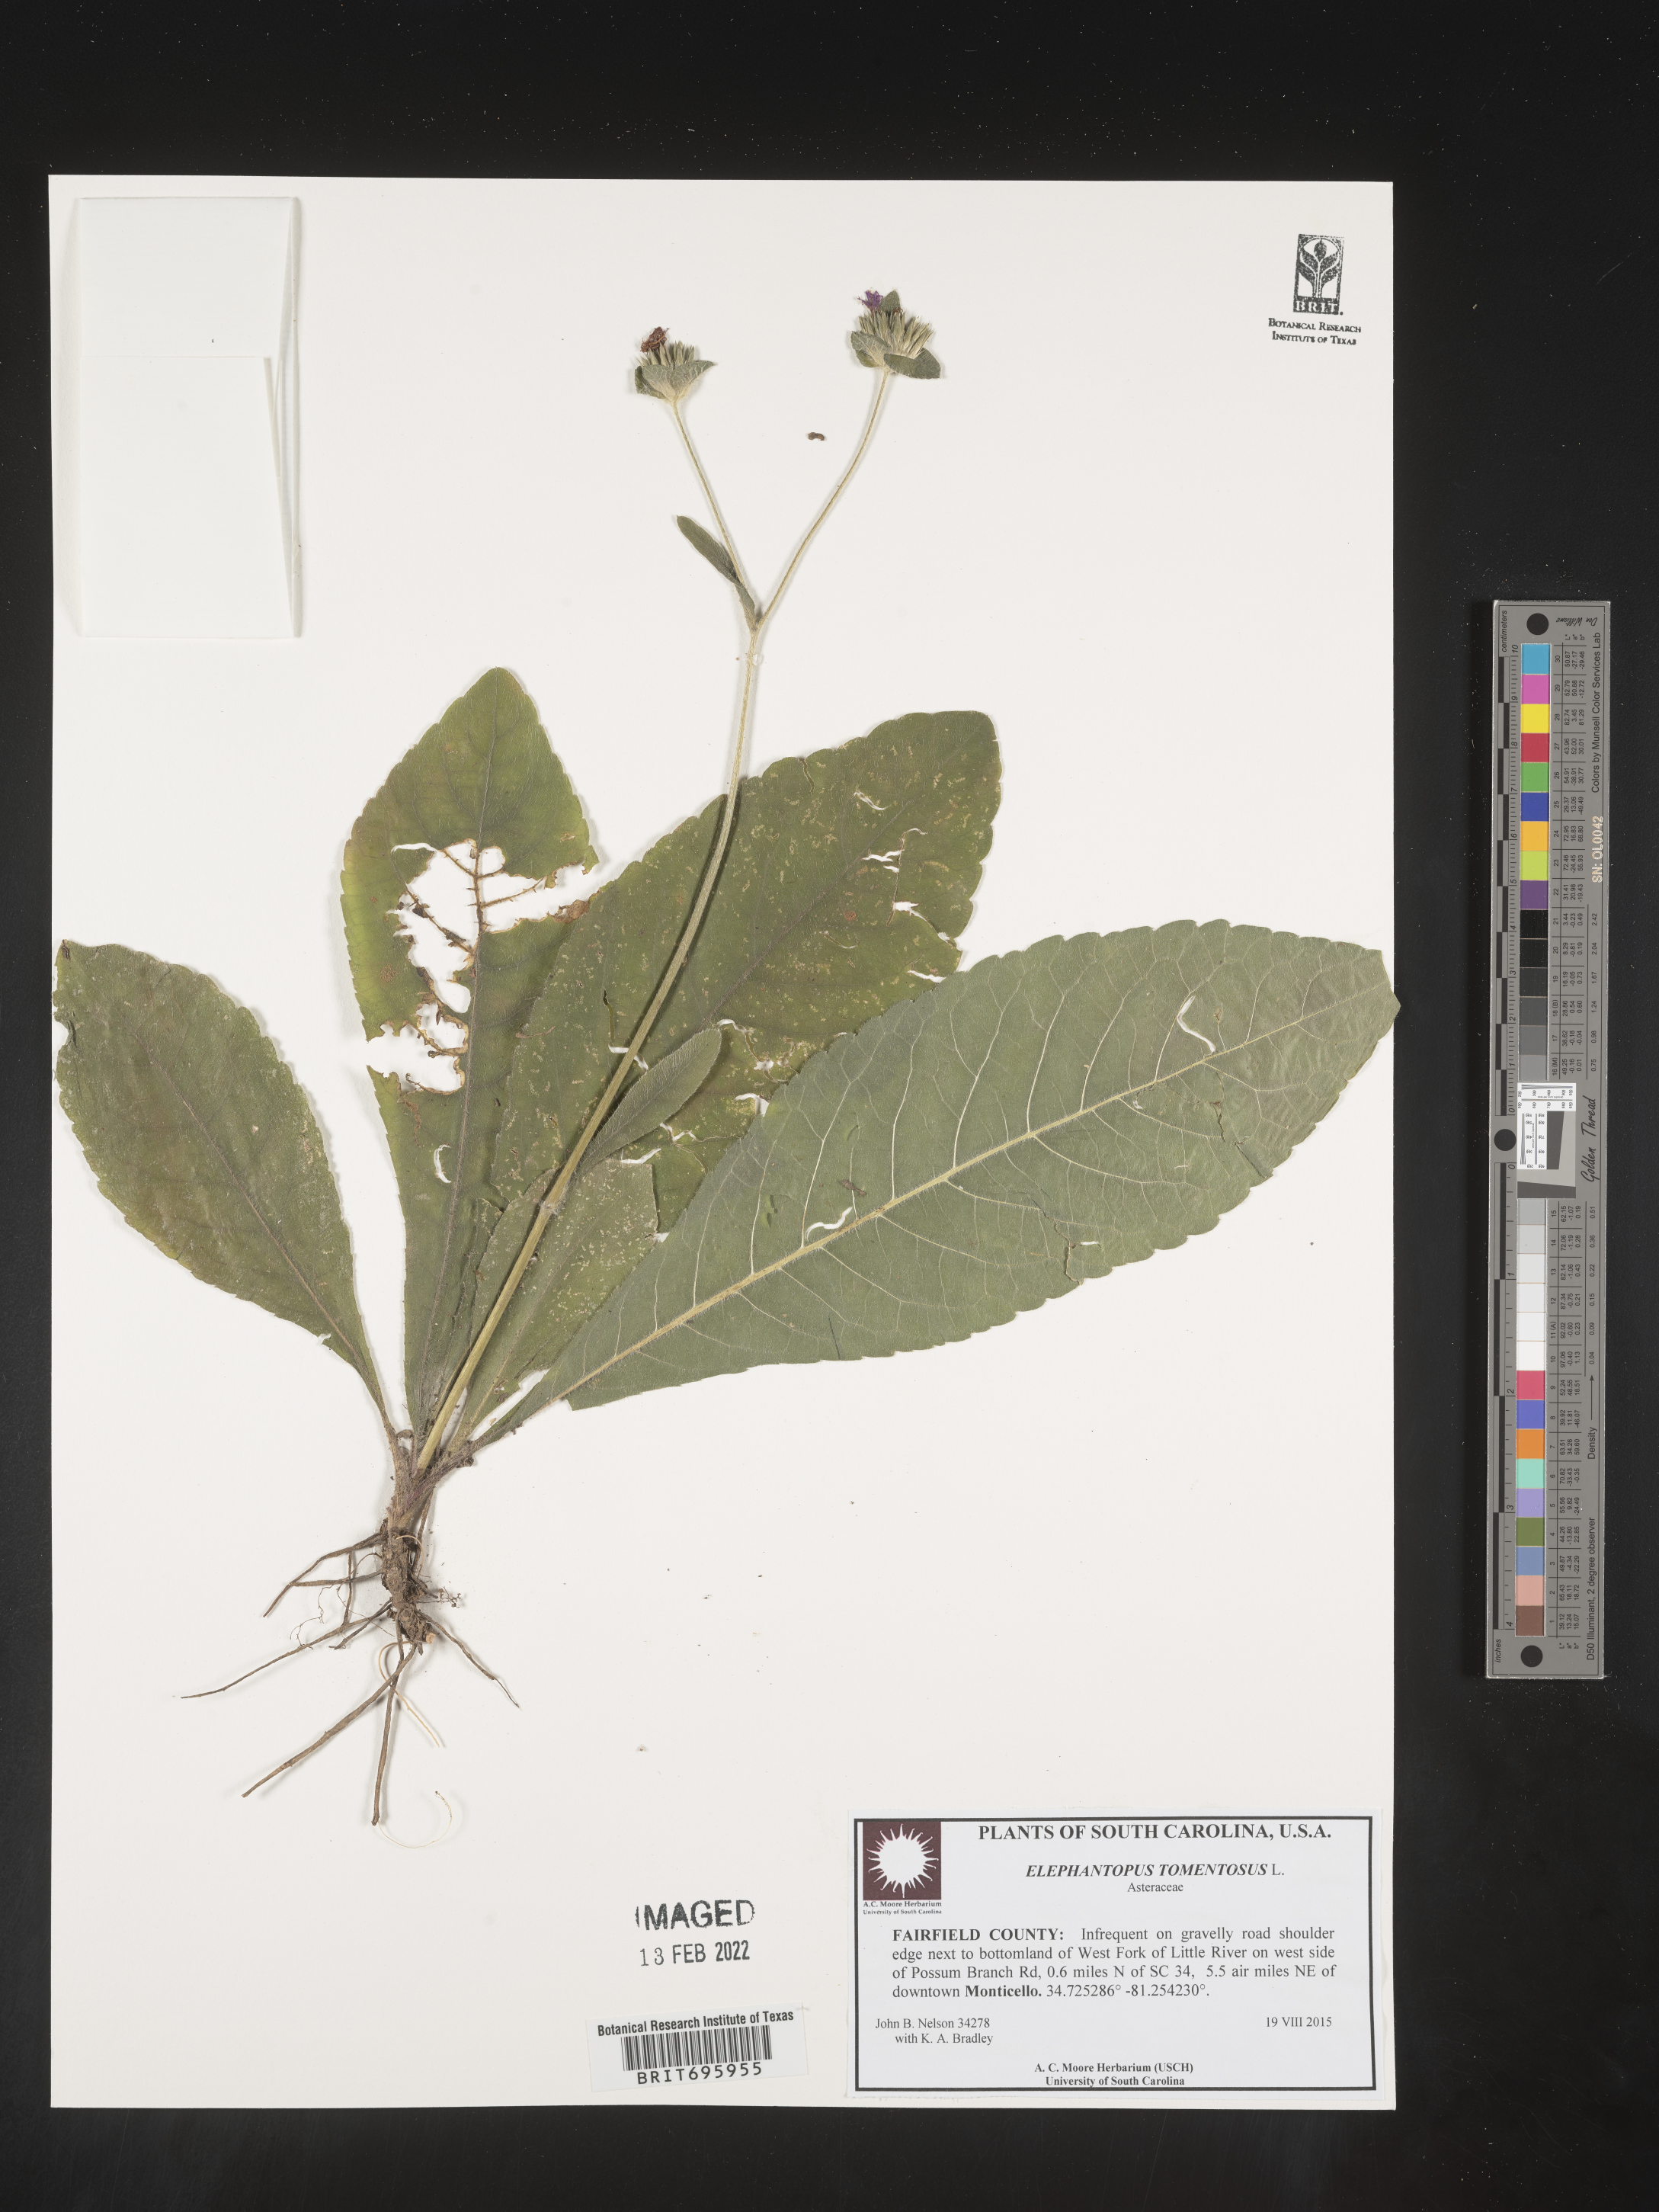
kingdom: Plantae
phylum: Tracheophyta
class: Magnoliopsida
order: Asterales
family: Asteraceae
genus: Elephantopus
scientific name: Elephantopus tomentosus
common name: Tobacco-weed
